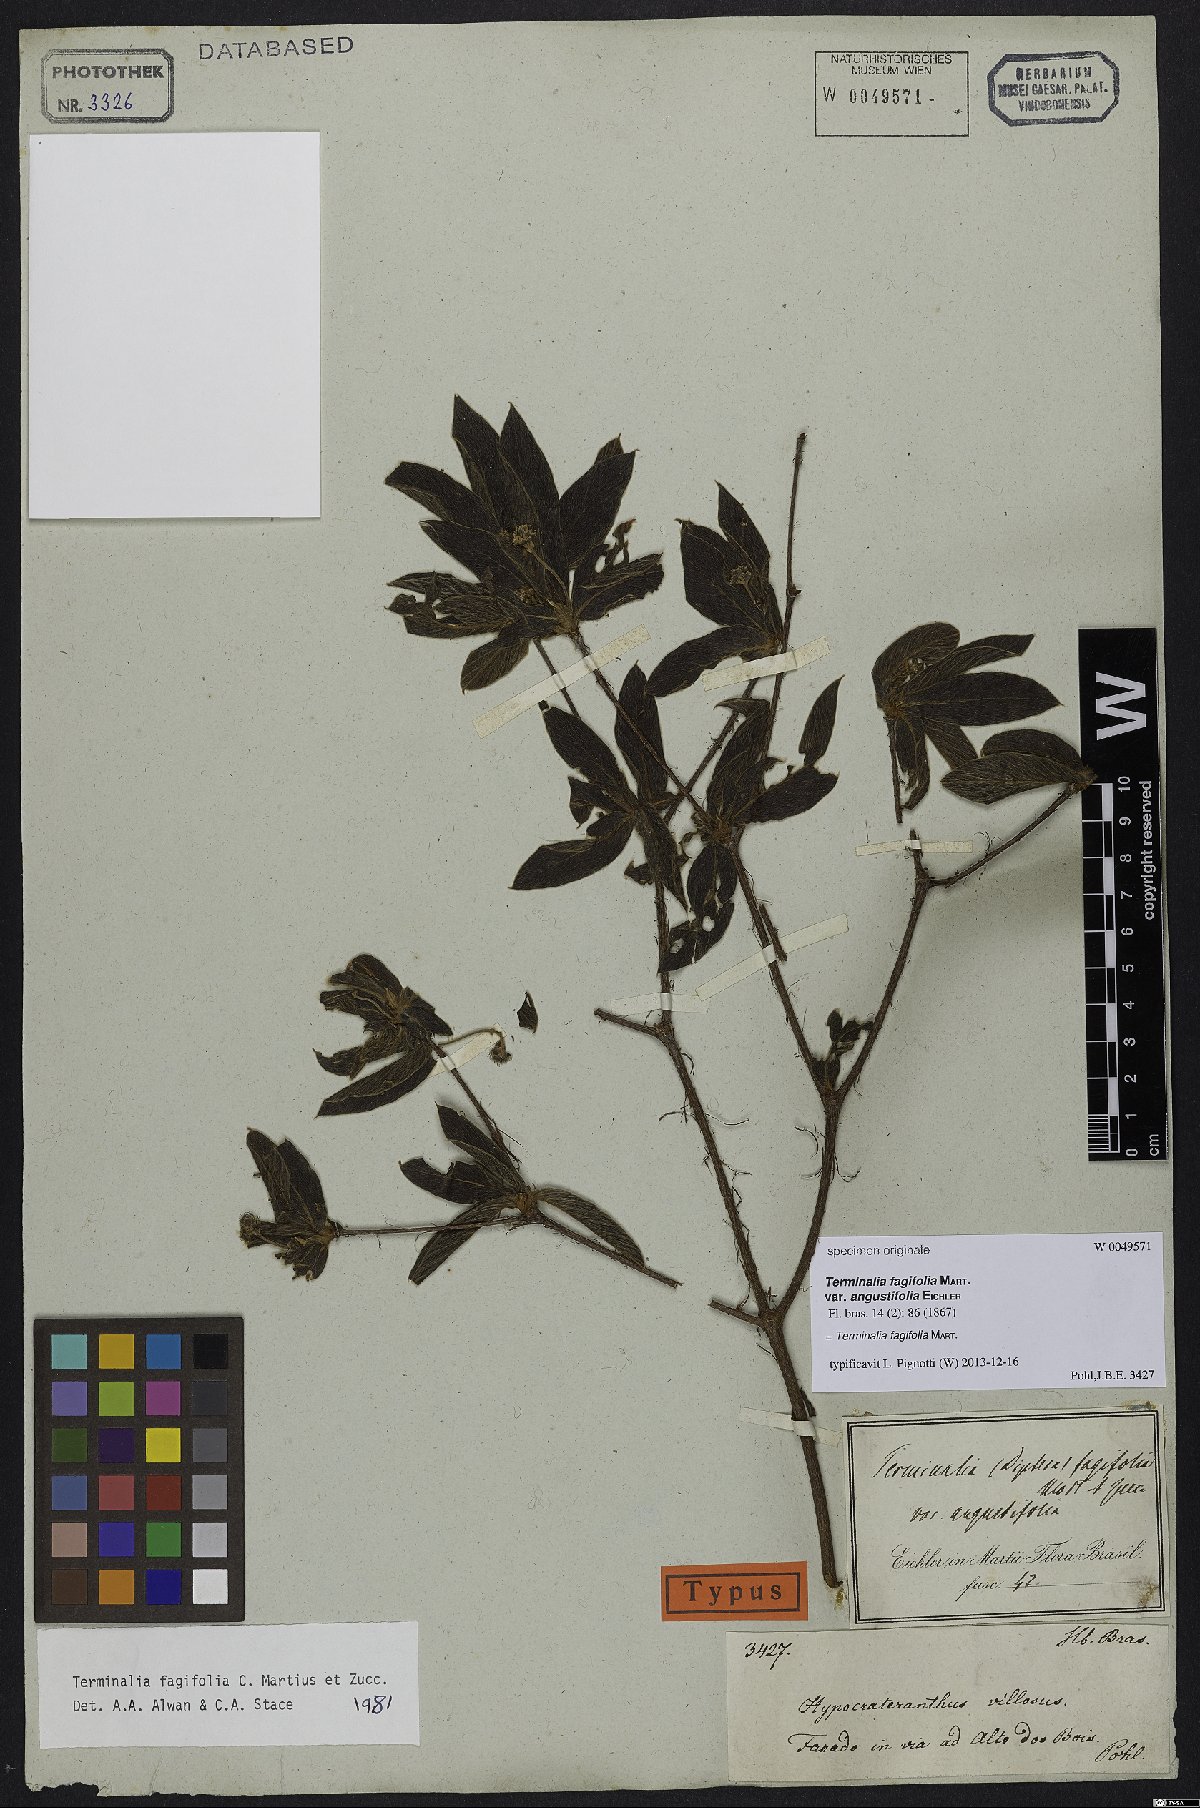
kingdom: Plantae
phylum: Tracheophyta
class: Magnoliopsida
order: Myrtales
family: Combretaceae
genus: Terminalia
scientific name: Terminalia fagifolia
